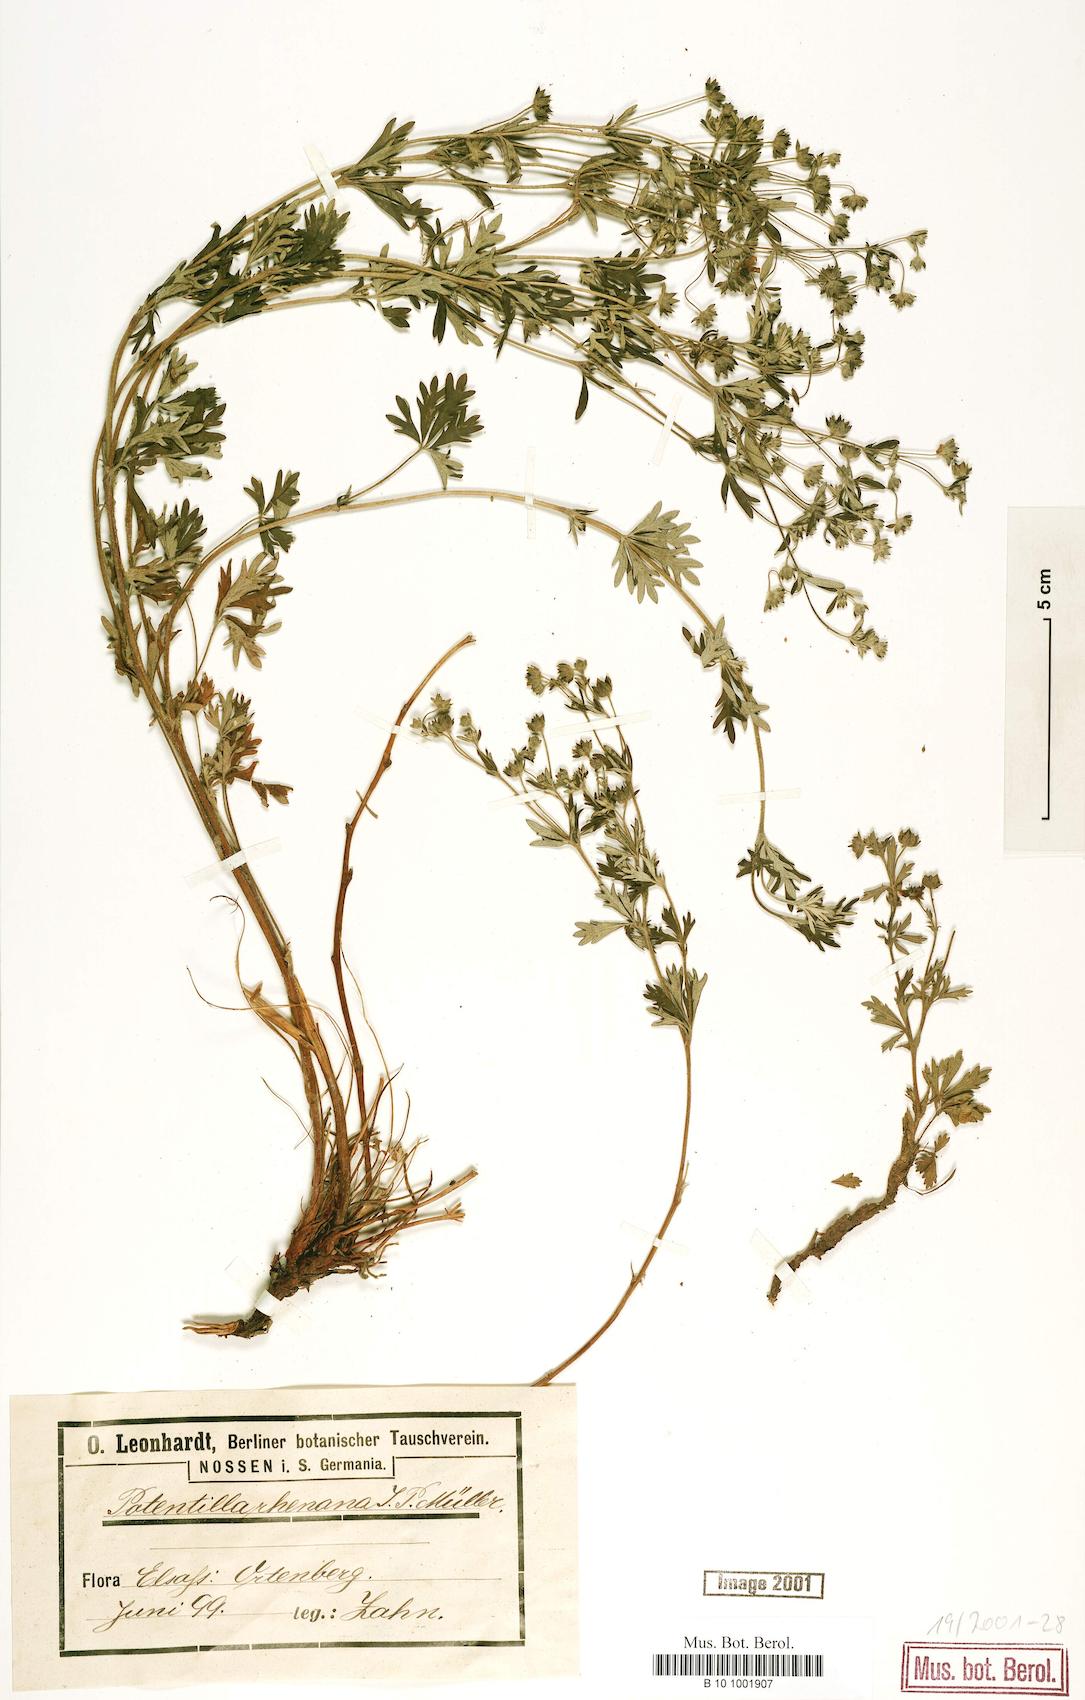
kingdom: Plantae
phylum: Tracheophyta
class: Magnoliopsida
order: Rosales
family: Rosaceae
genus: Potentilla
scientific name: Potentilla rhenana
